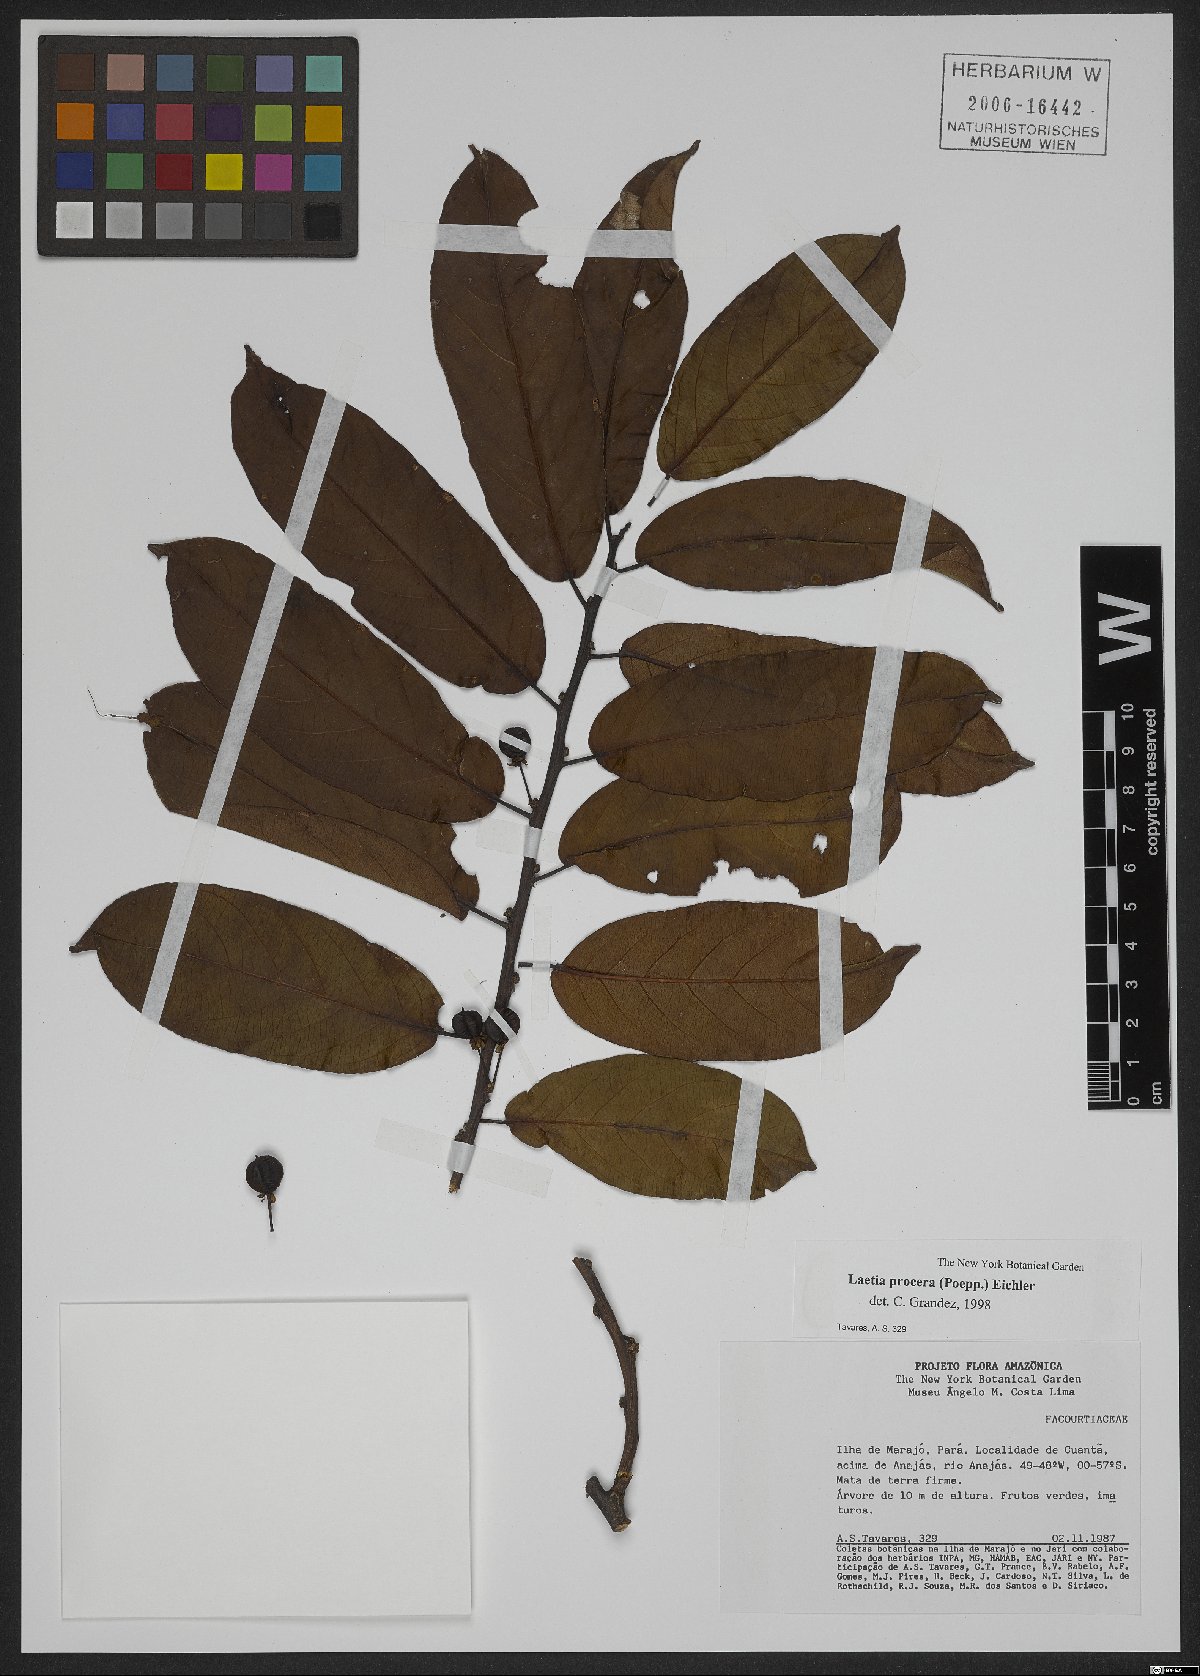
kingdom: Plantae
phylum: Tracheophyta
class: Magnoliopsida
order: Malpighiales
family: Salicaceae
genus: Casearia
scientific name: Casearia bicolor
